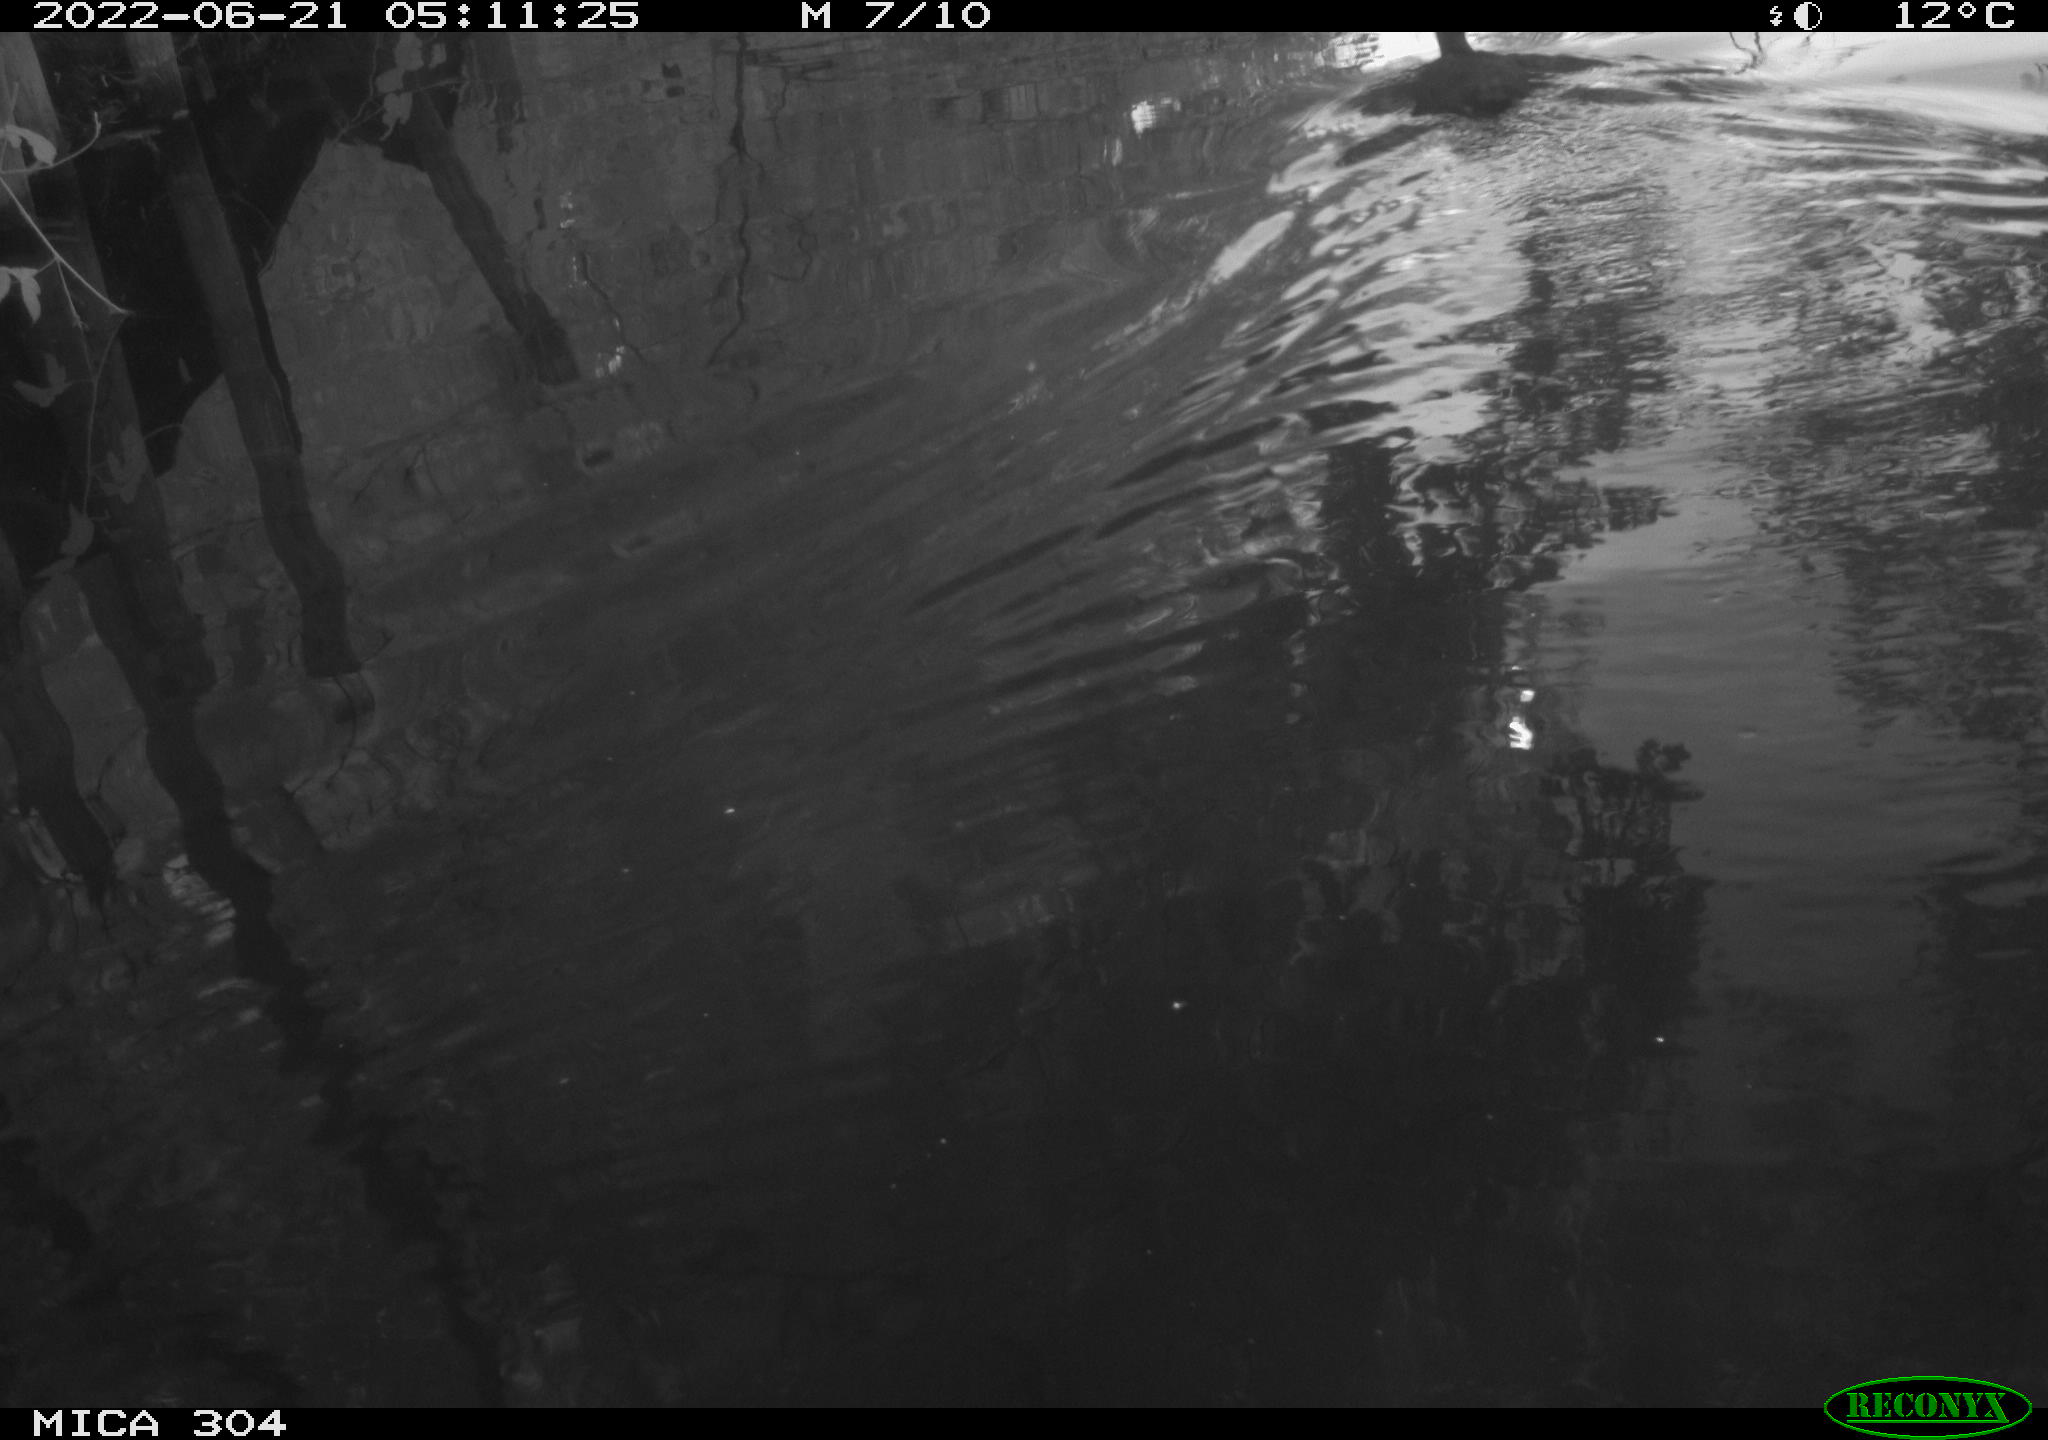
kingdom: Animalia
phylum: Chordata
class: Aves
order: Gruiformes
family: Rallidae
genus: Fulica
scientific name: Fulica atra
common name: Eurasian coot
